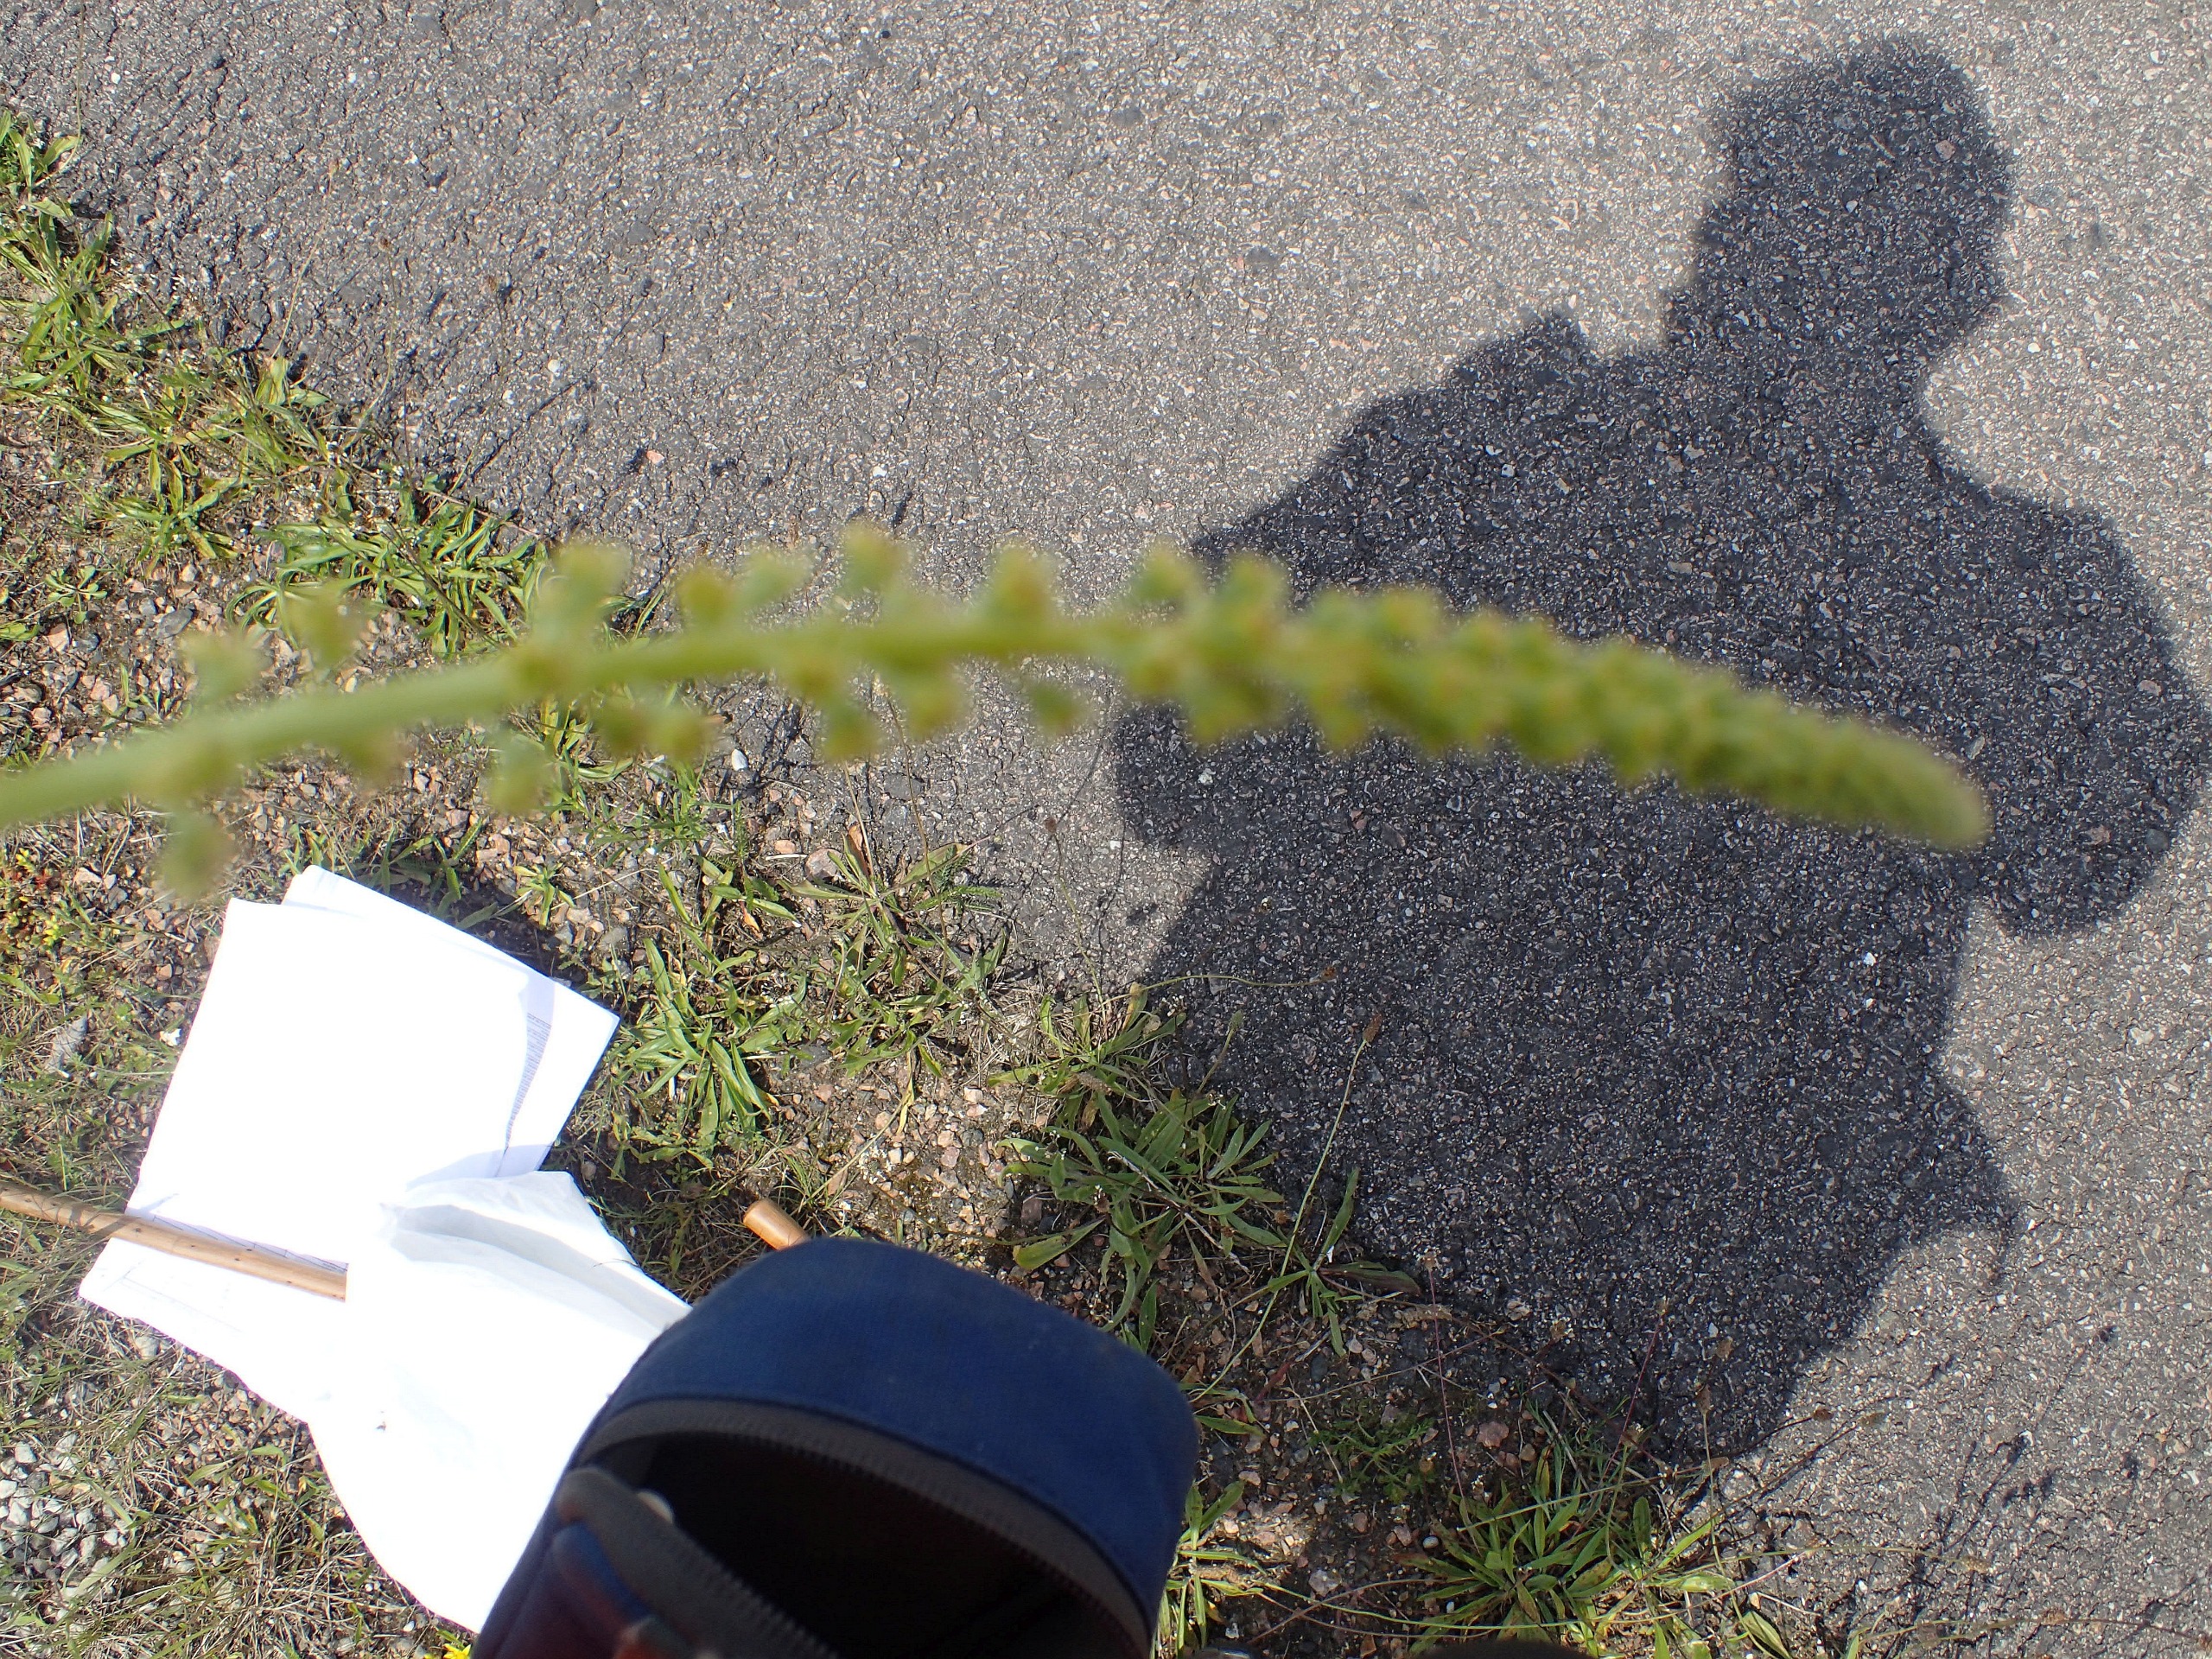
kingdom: Plantae
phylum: Tracheophyta
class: Magnoliopsida
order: Brassicales
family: Resedaceae
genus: Reseda
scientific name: Reseda luteola
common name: Farve-reseda
